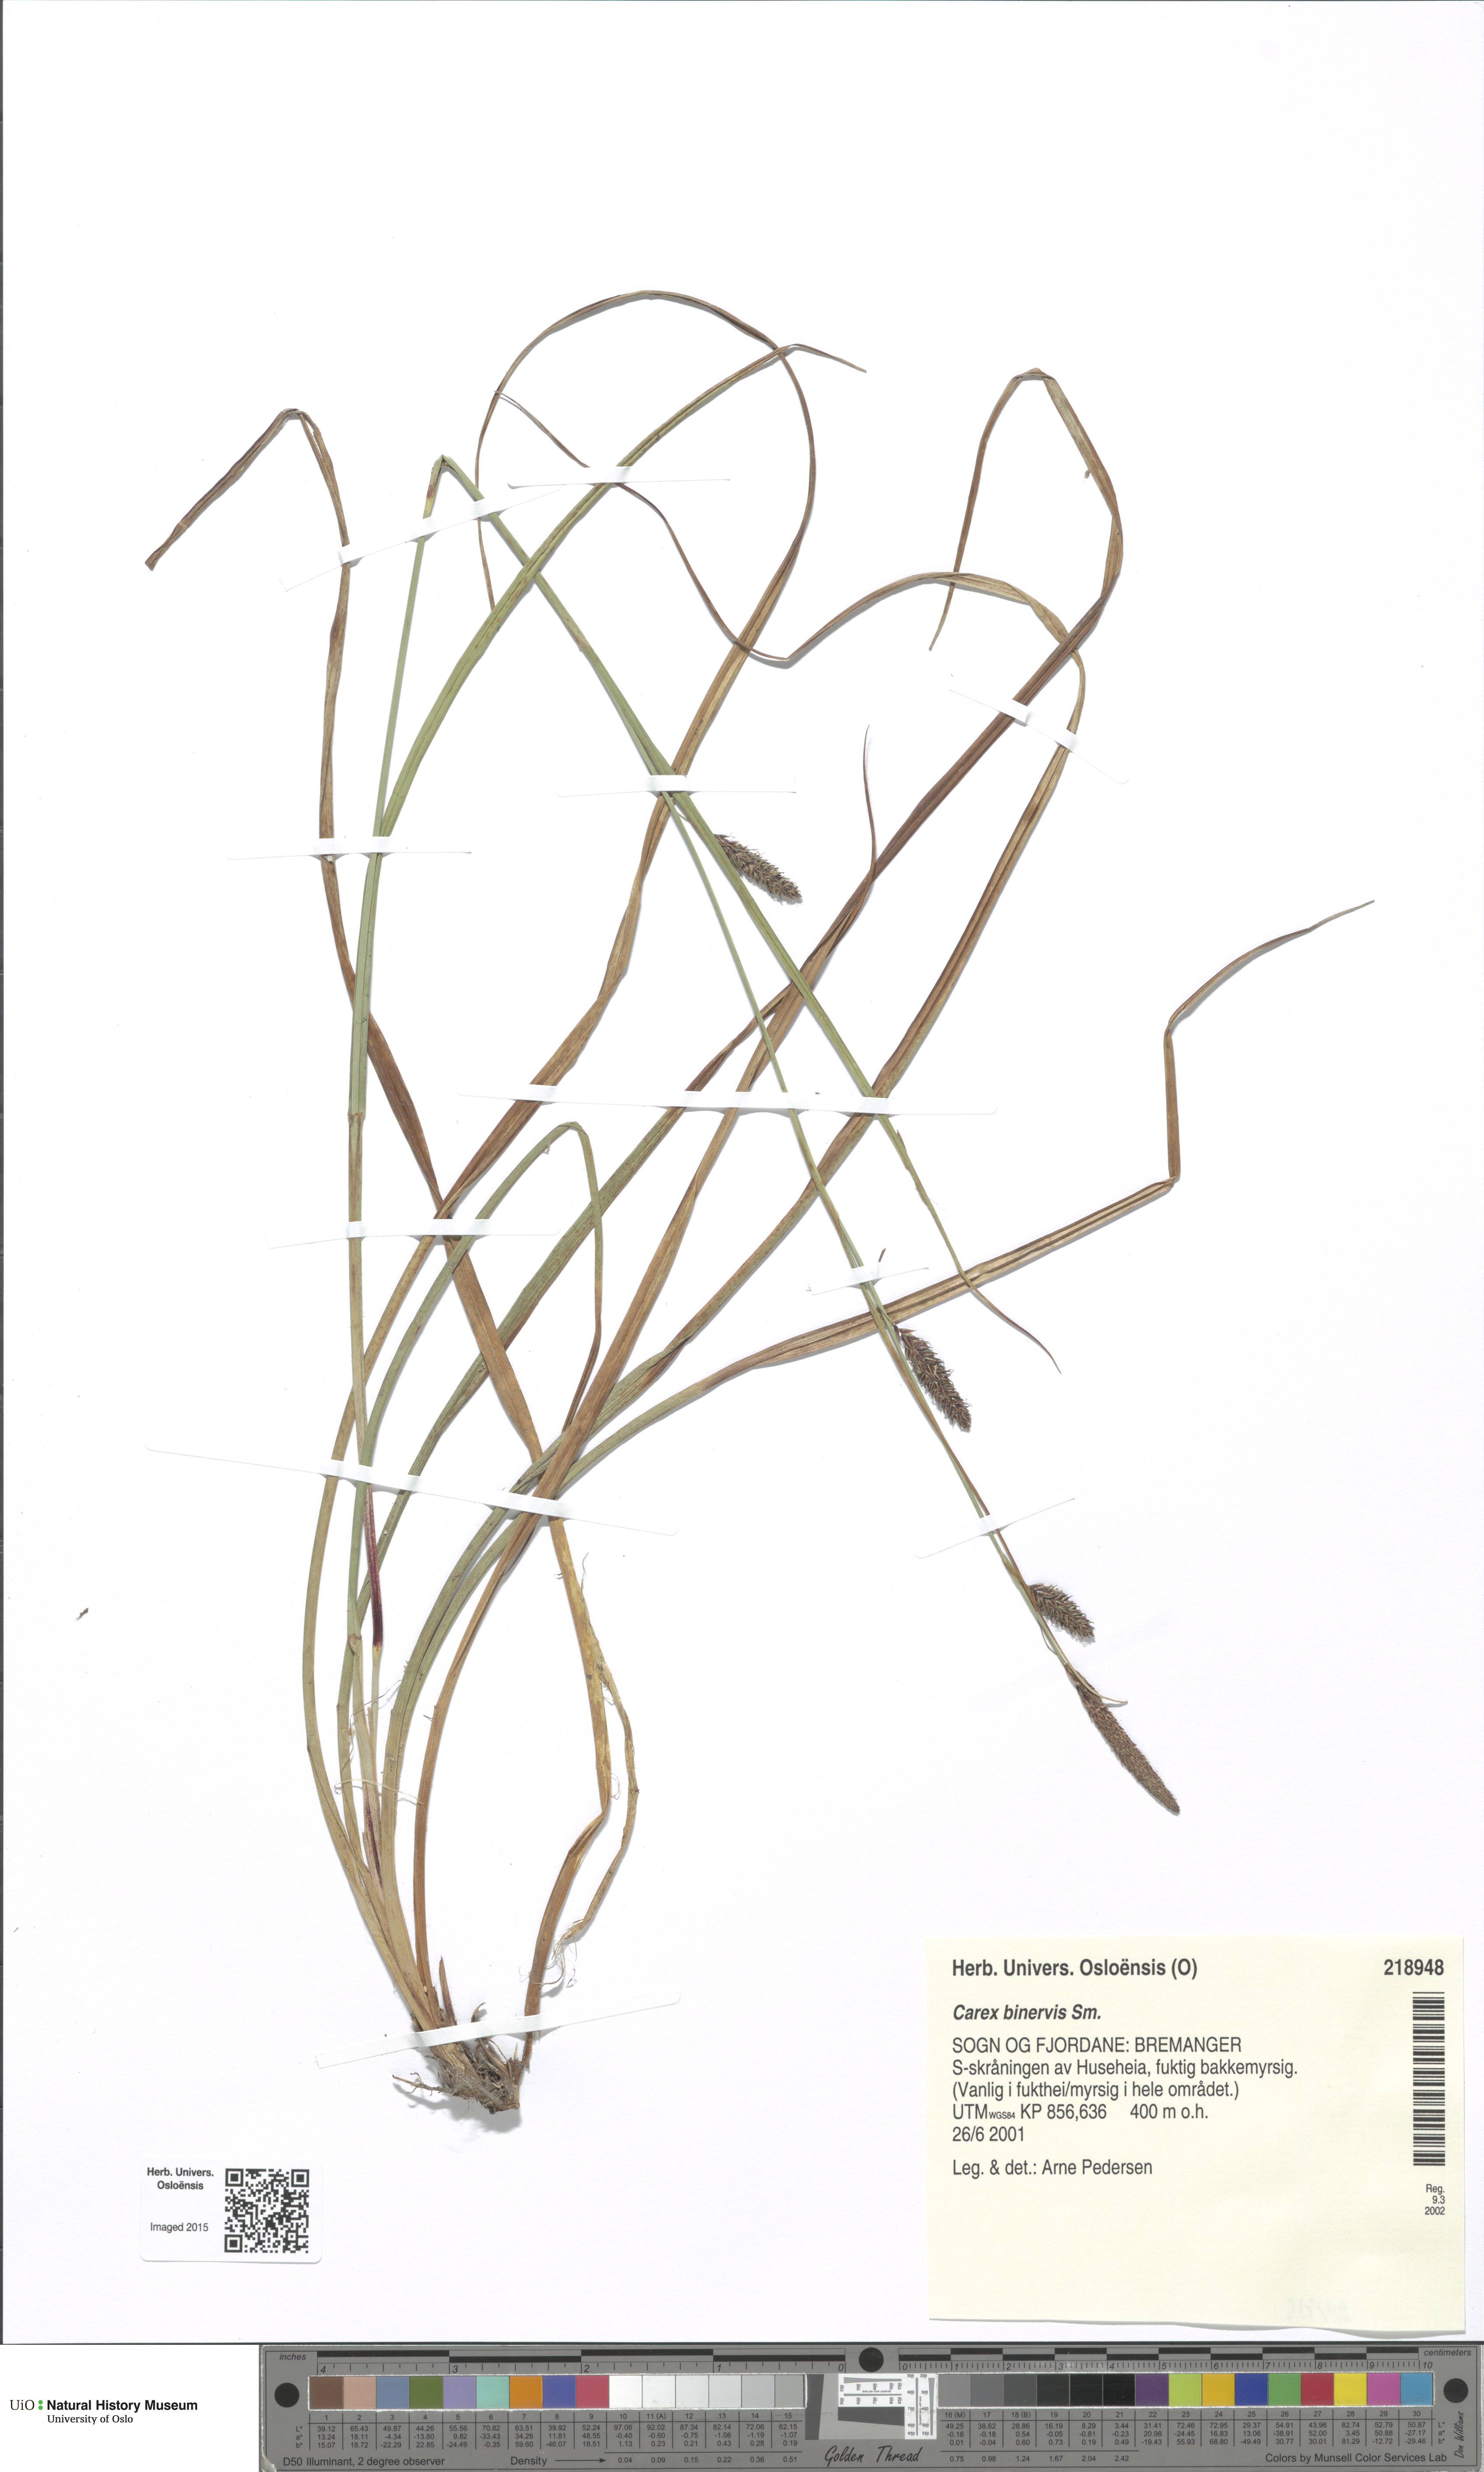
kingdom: Plantae
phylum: Tracheophyta
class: Liliopsida
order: Poales
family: Cyperaceae
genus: Carex
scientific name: Carex binervis
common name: Green-ribbed sedge
